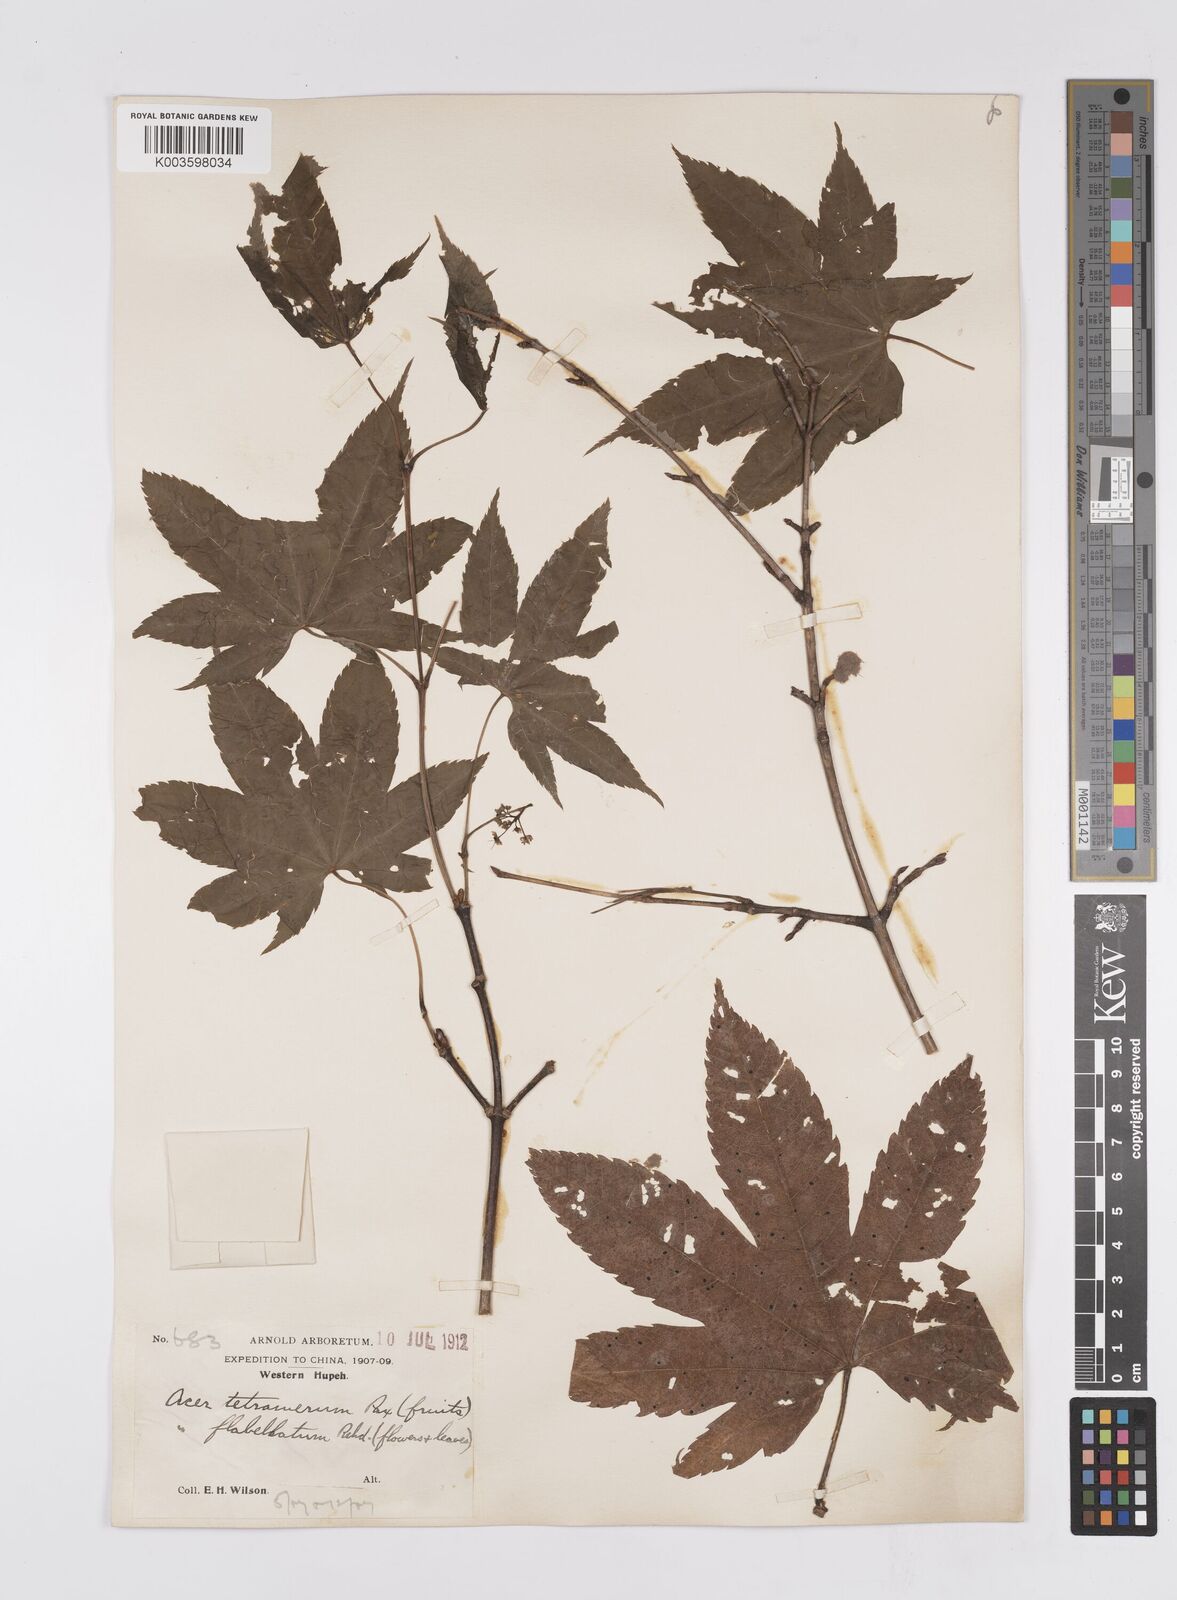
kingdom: Plantae
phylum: Tracheophyta
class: Magnoliopsida
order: Sapindales
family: Sapindaceae
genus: Acer
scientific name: Acer
